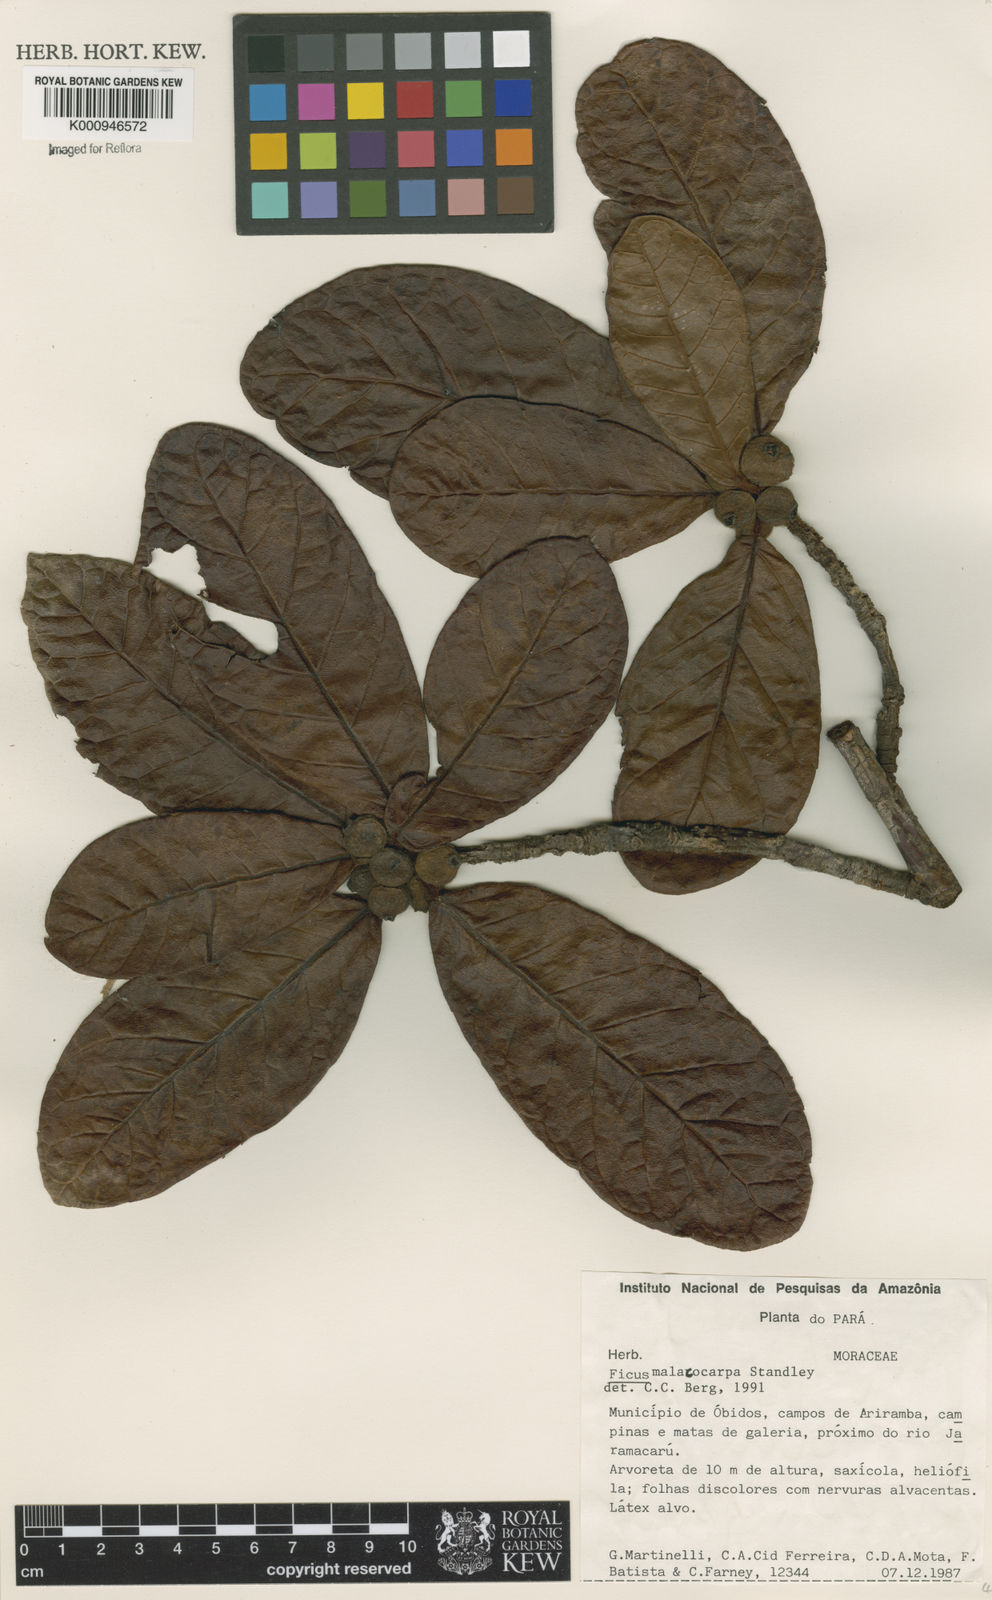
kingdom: Plantae
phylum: Tracheophyta
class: Magnoliopsida
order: Rosales
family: Moraceae
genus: Ficus
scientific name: Ficus popenoei
